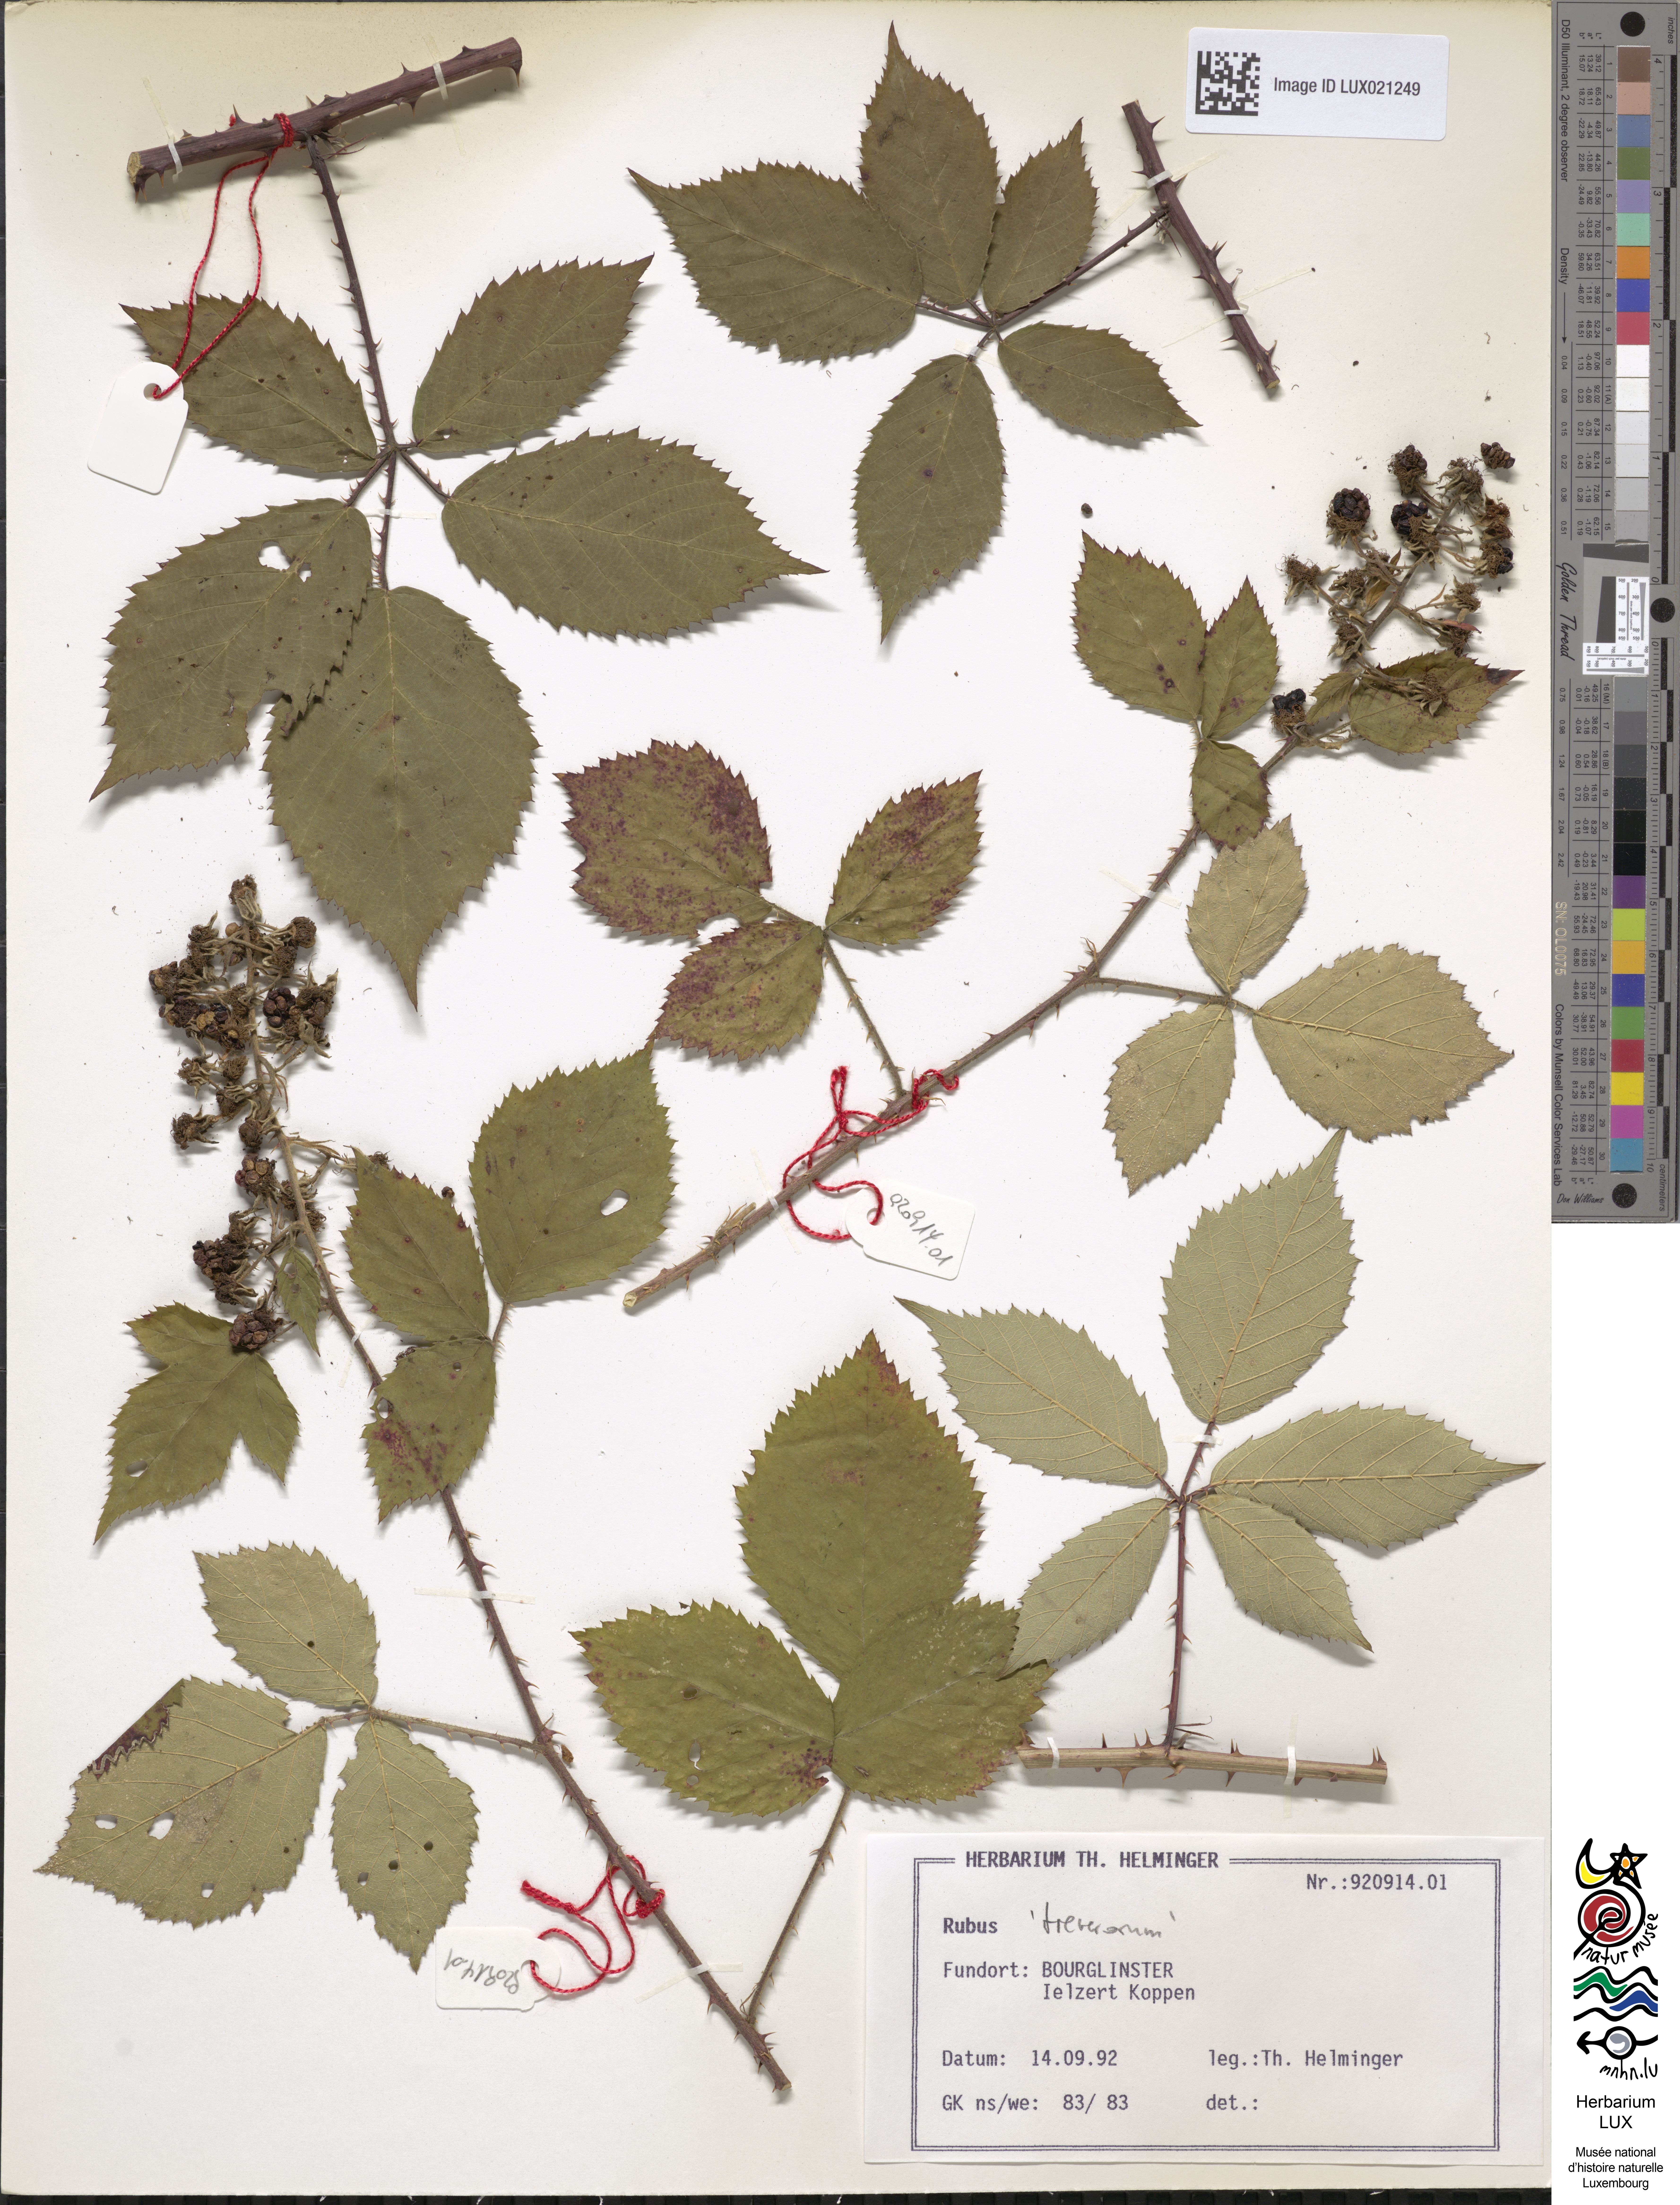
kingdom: Plantae
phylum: Tracheophyta
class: Magnoliopsida
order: Rosales
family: Rosaceae
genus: Rubus
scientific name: Rubus
